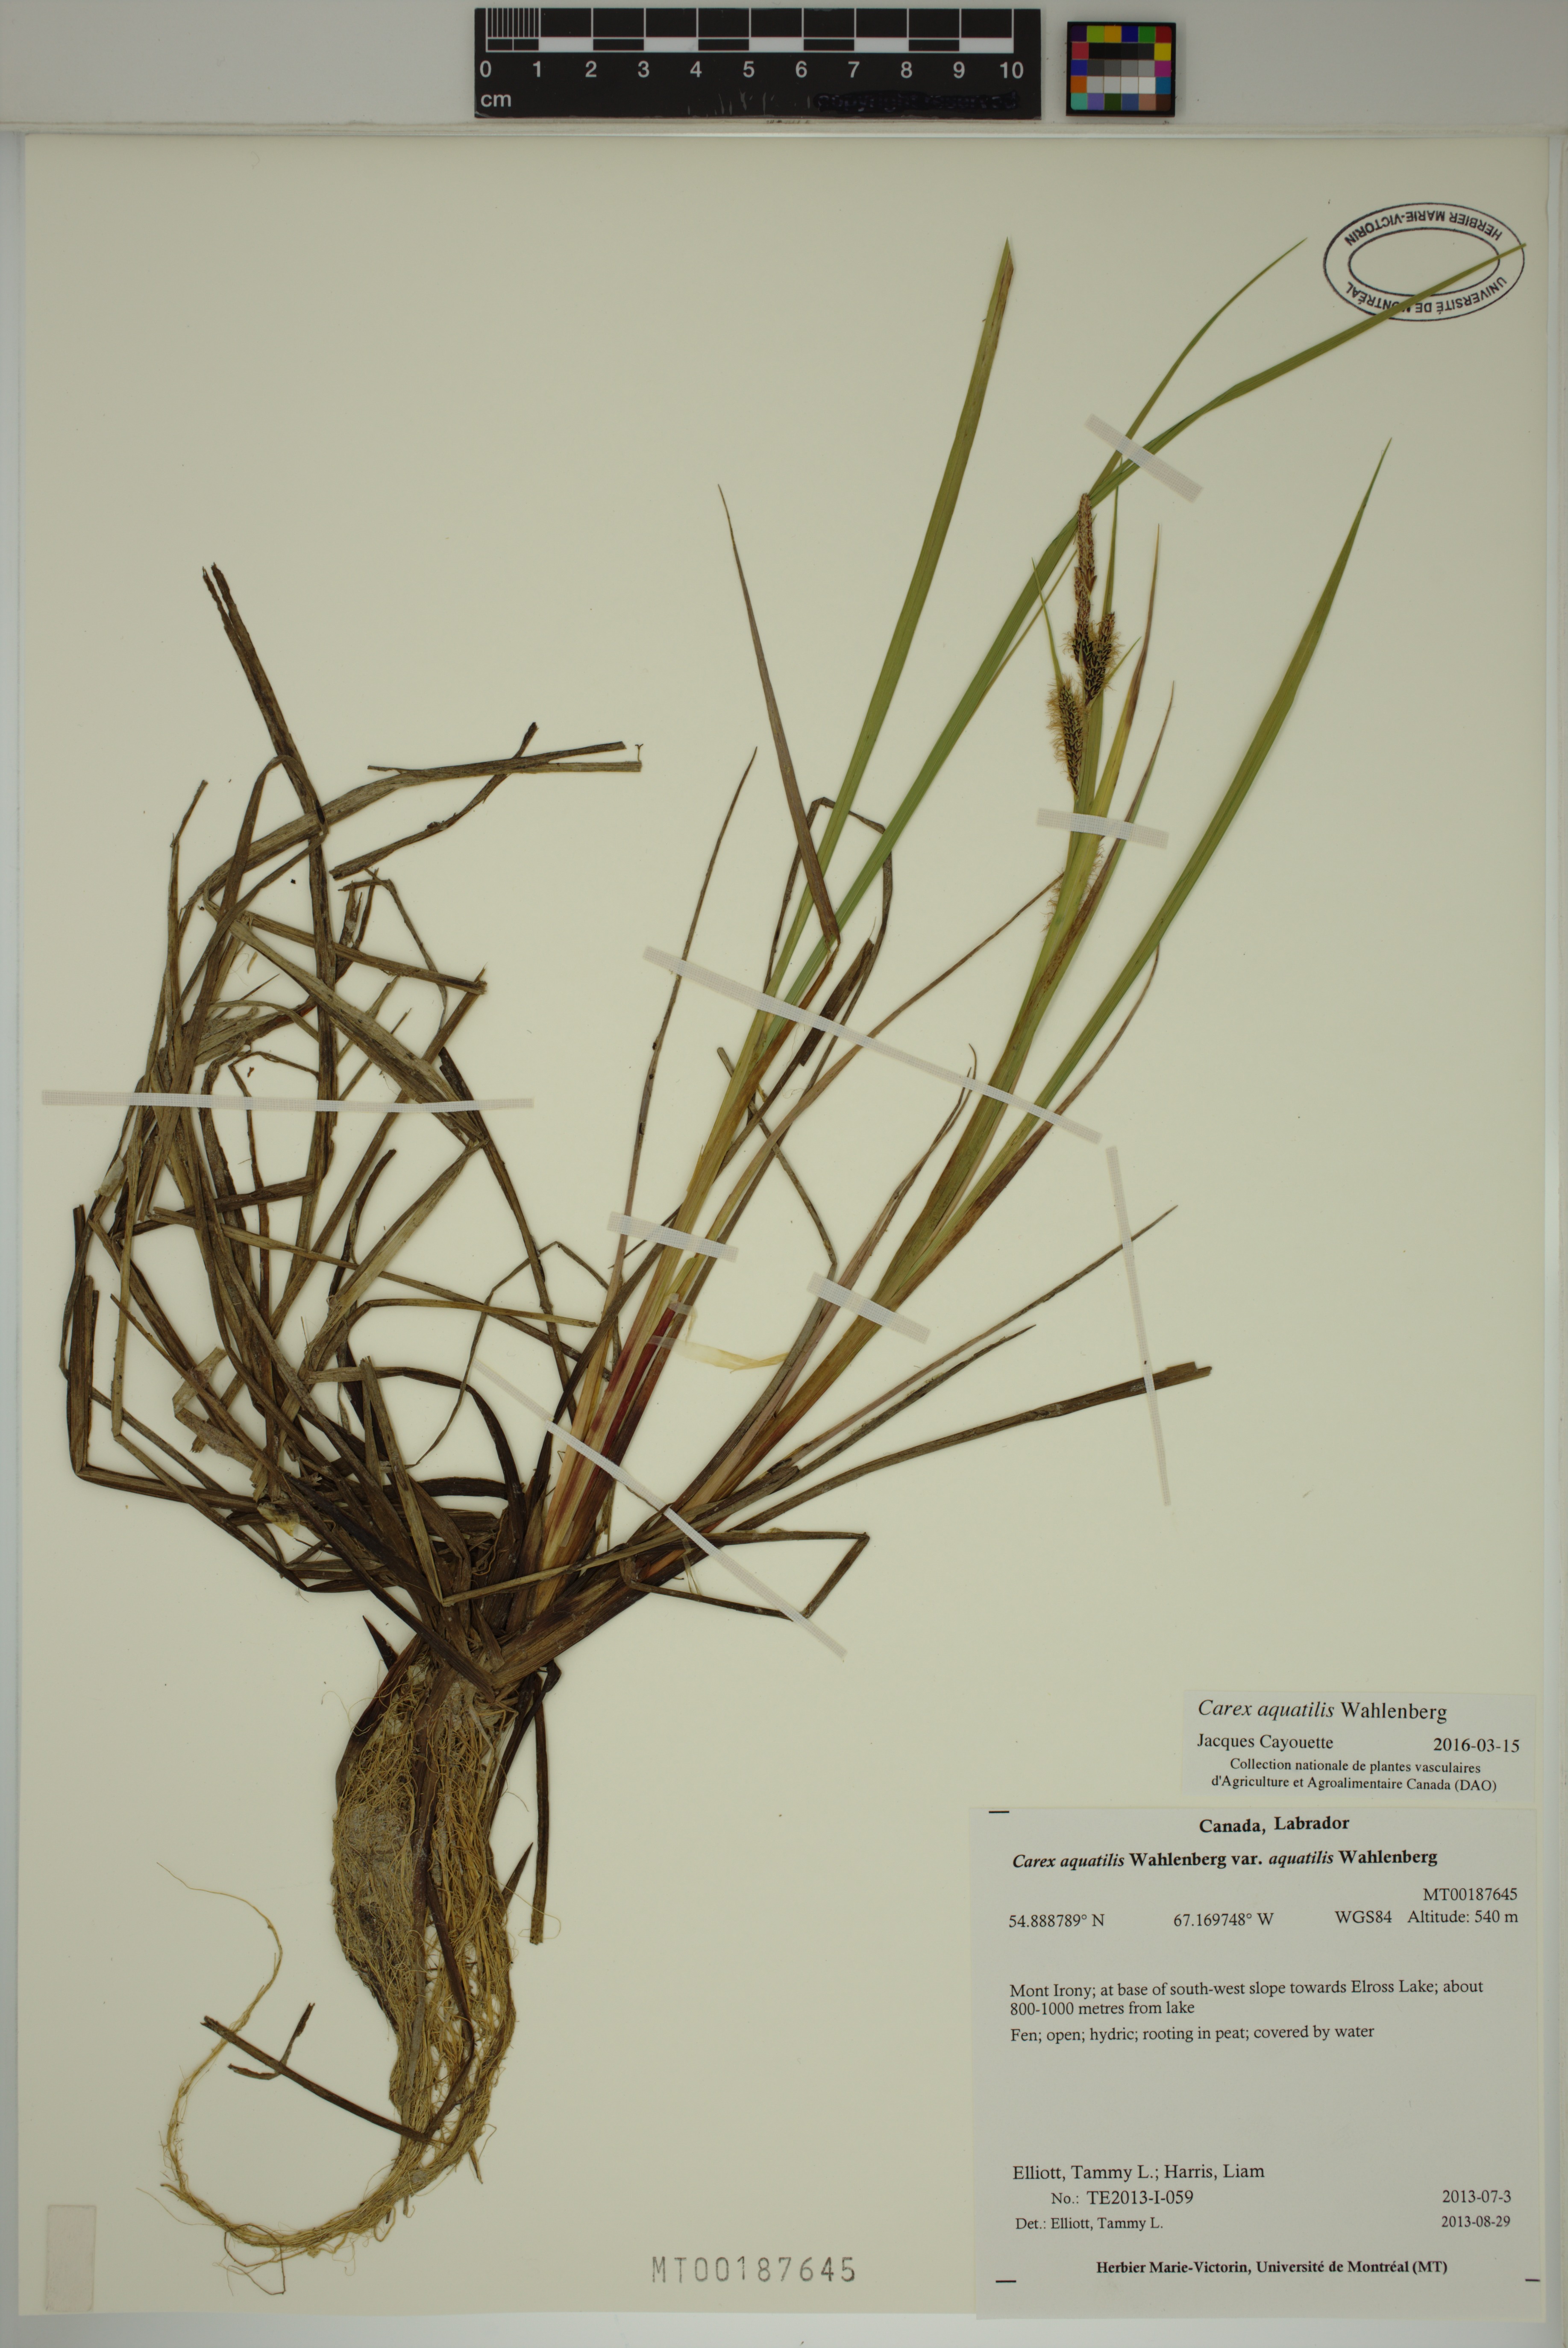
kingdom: Plantae
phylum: Tracheophyta
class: Liliopsida
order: Poales
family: Cyperaceae
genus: Carex
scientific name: Carex aquatilis
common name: Water sedge
